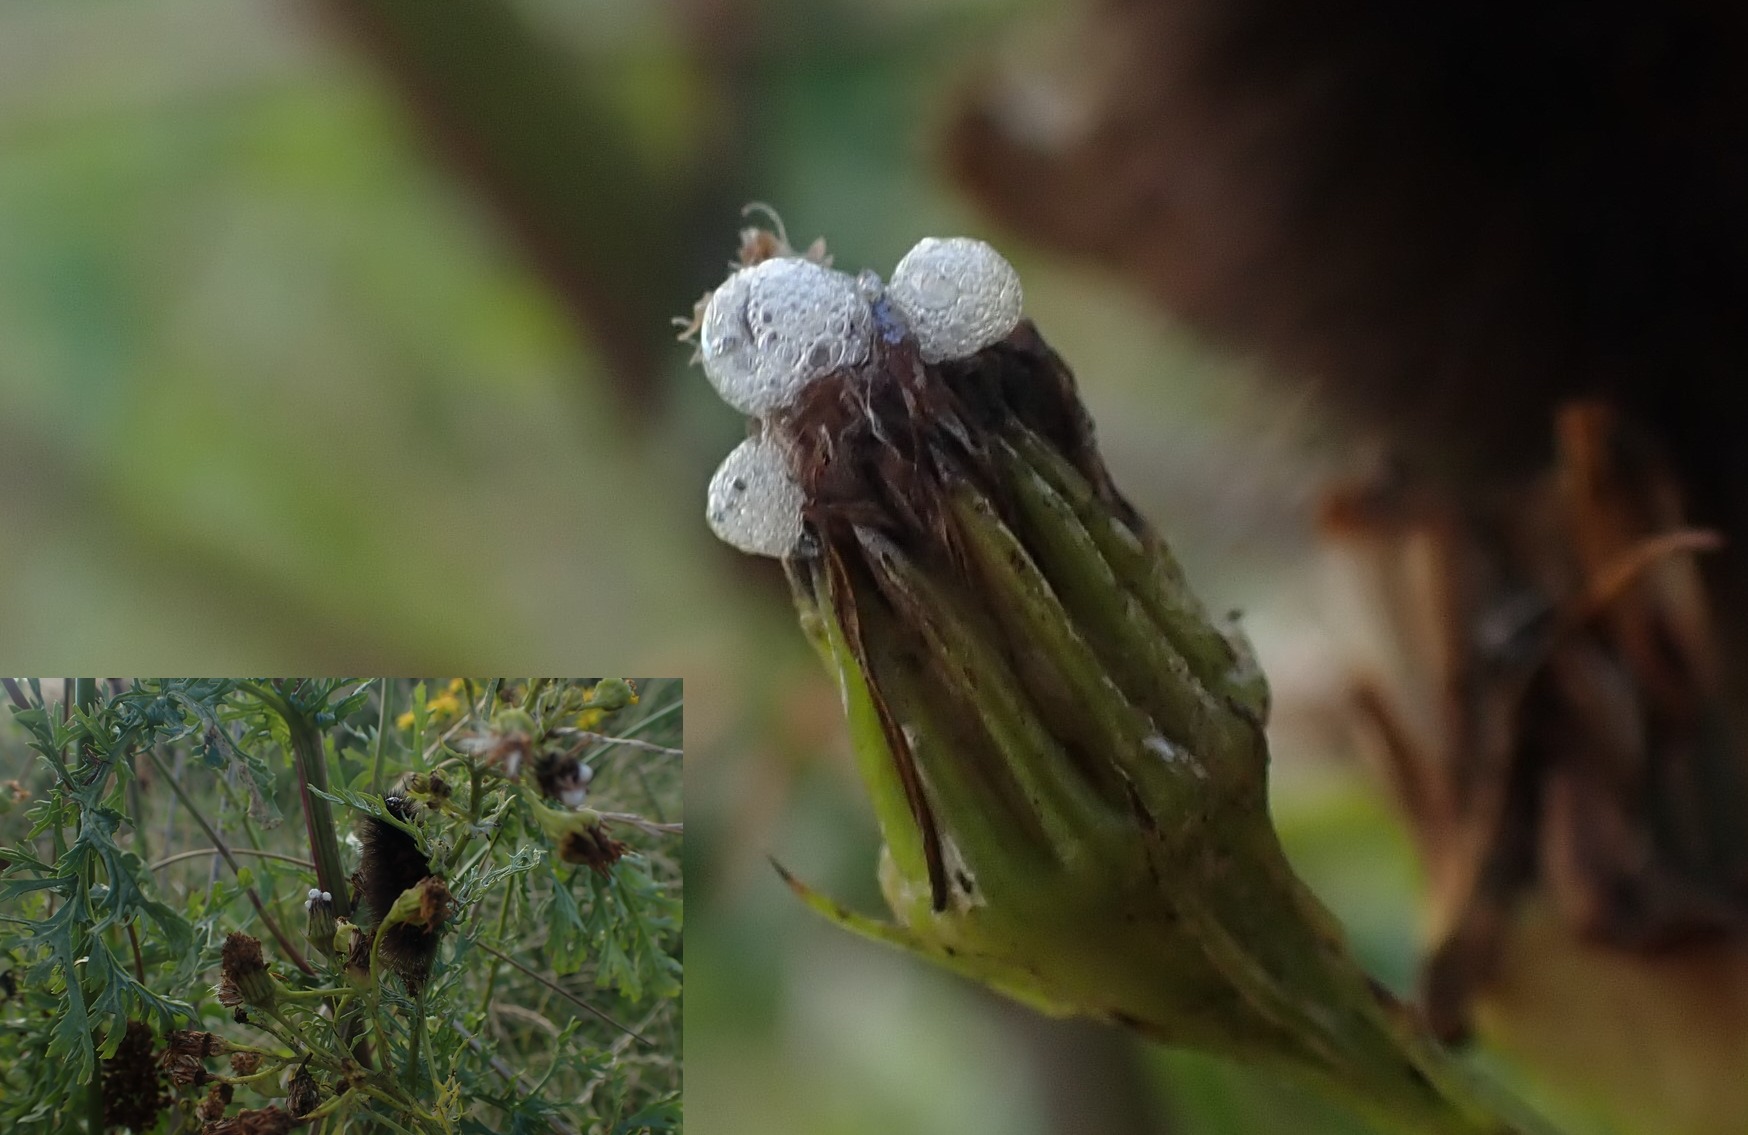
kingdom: Animalia
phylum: Arthropoda
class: Insecta
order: Diptera
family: Anthomyiidae
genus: Botanophila
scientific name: Botanophila seneciella
